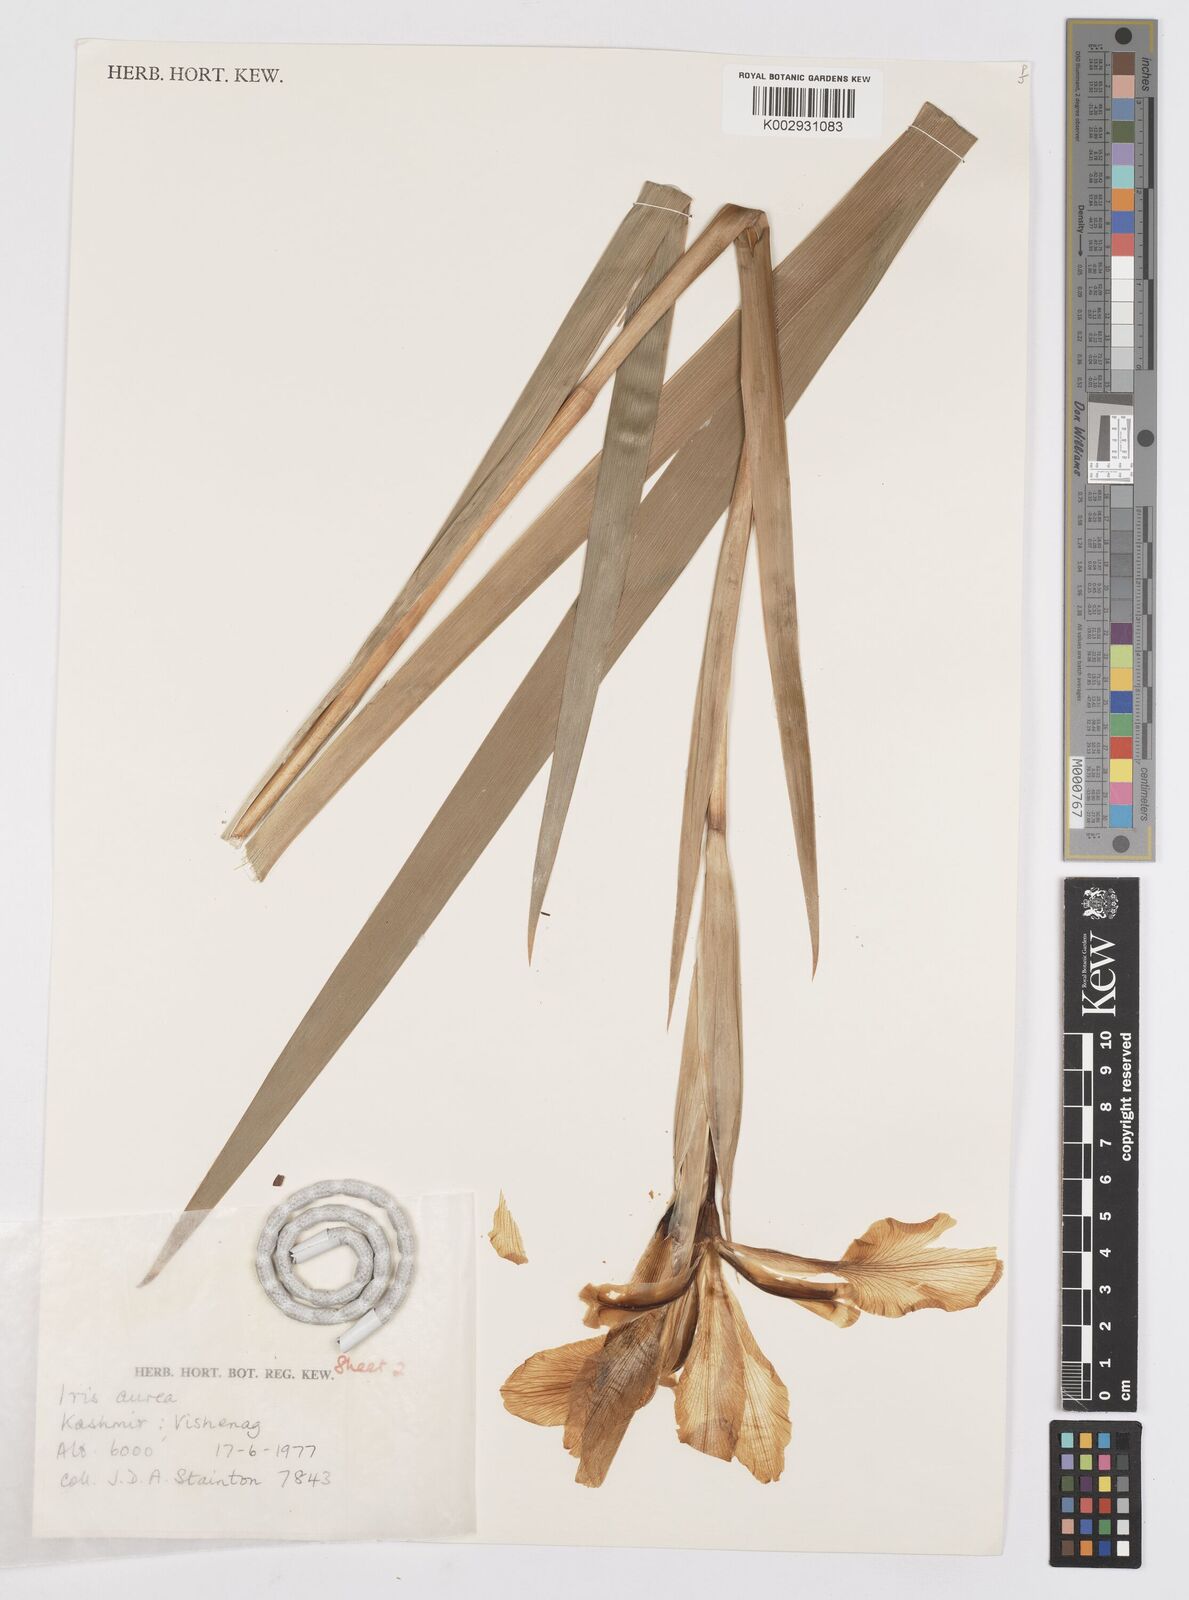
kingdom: Plantae
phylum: Tracheophyta
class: Liliopsida
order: Asparagales
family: Iridaceae
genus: Iris
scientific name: Iris crocea
